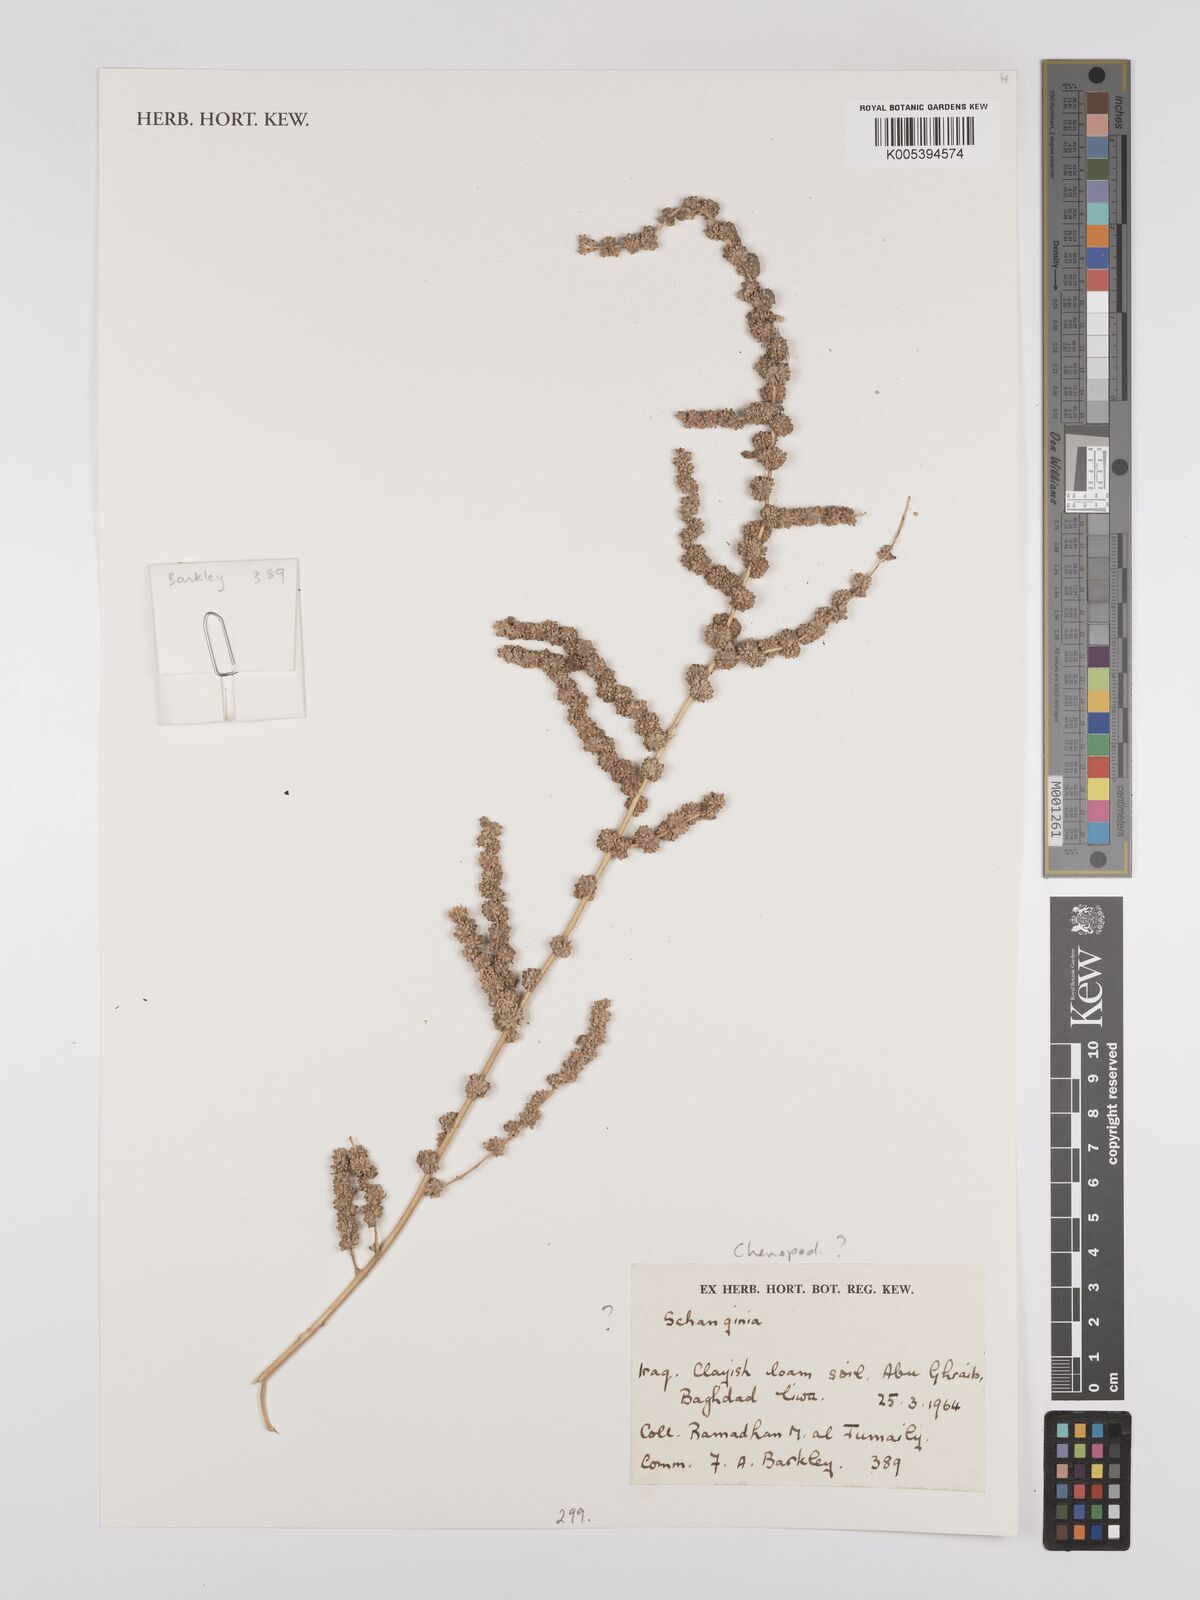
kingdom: Plantae
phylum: Tracheophyta
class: Magnoliopsida
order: Caryophyllales
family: Amaranthaceae
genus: Suaeda
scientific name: Suaeda
